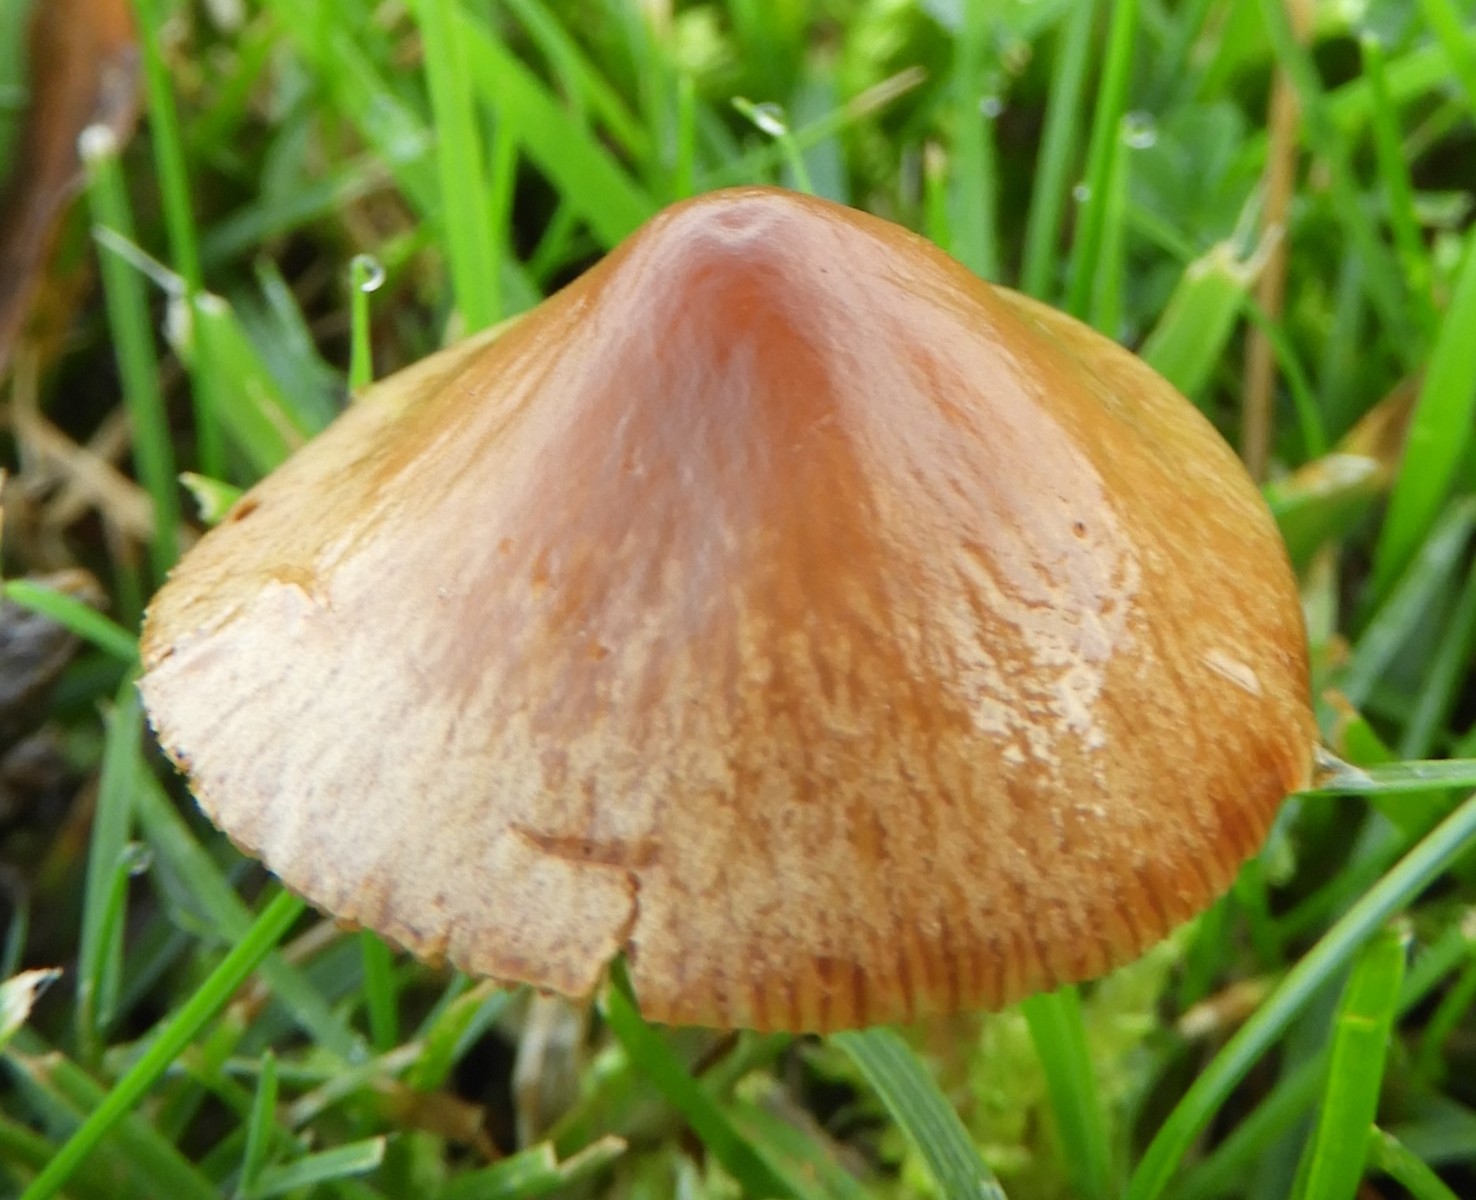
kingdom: Fungi
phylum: Basidiomycota
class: Agaricomycetes
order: Agaricales
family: Bolbitiaceae
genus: Conocybe
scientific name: Conocybe
